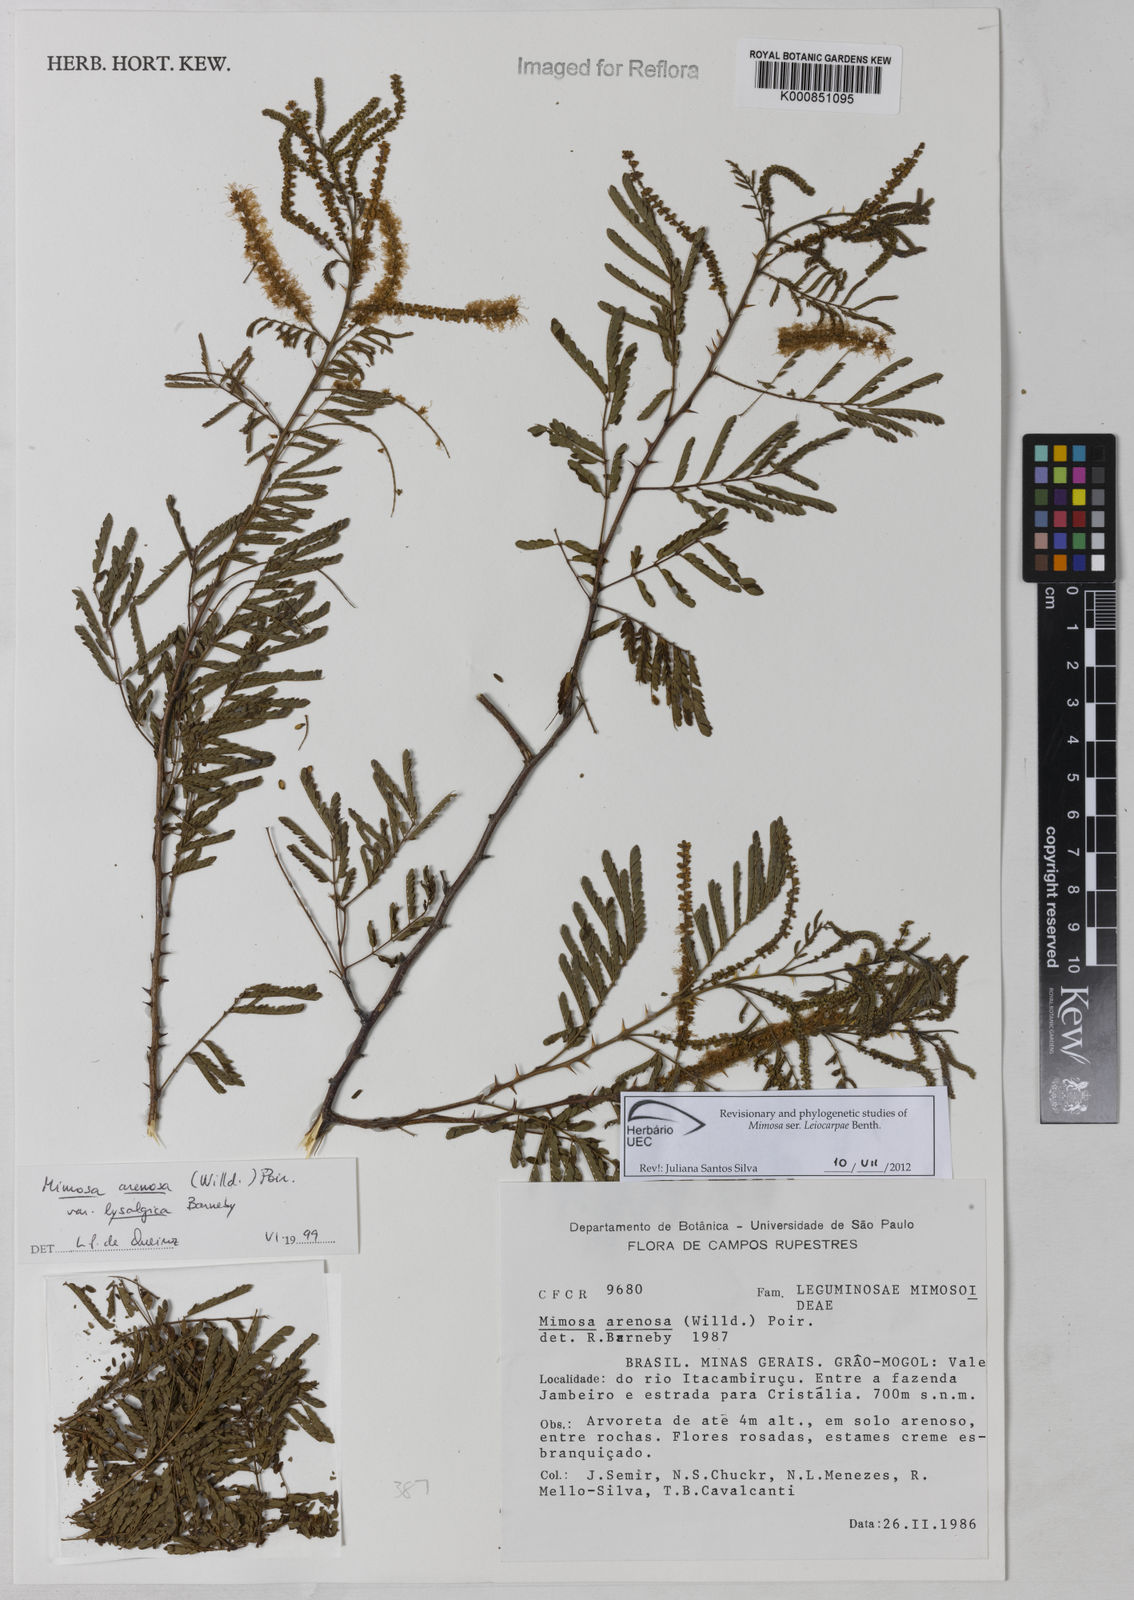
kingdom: Plantae
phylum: Tracheophyta
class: Magnoliopsida
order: Fabales
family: Fabaceae
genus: Mimosa
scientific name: Mimosa arenosa
